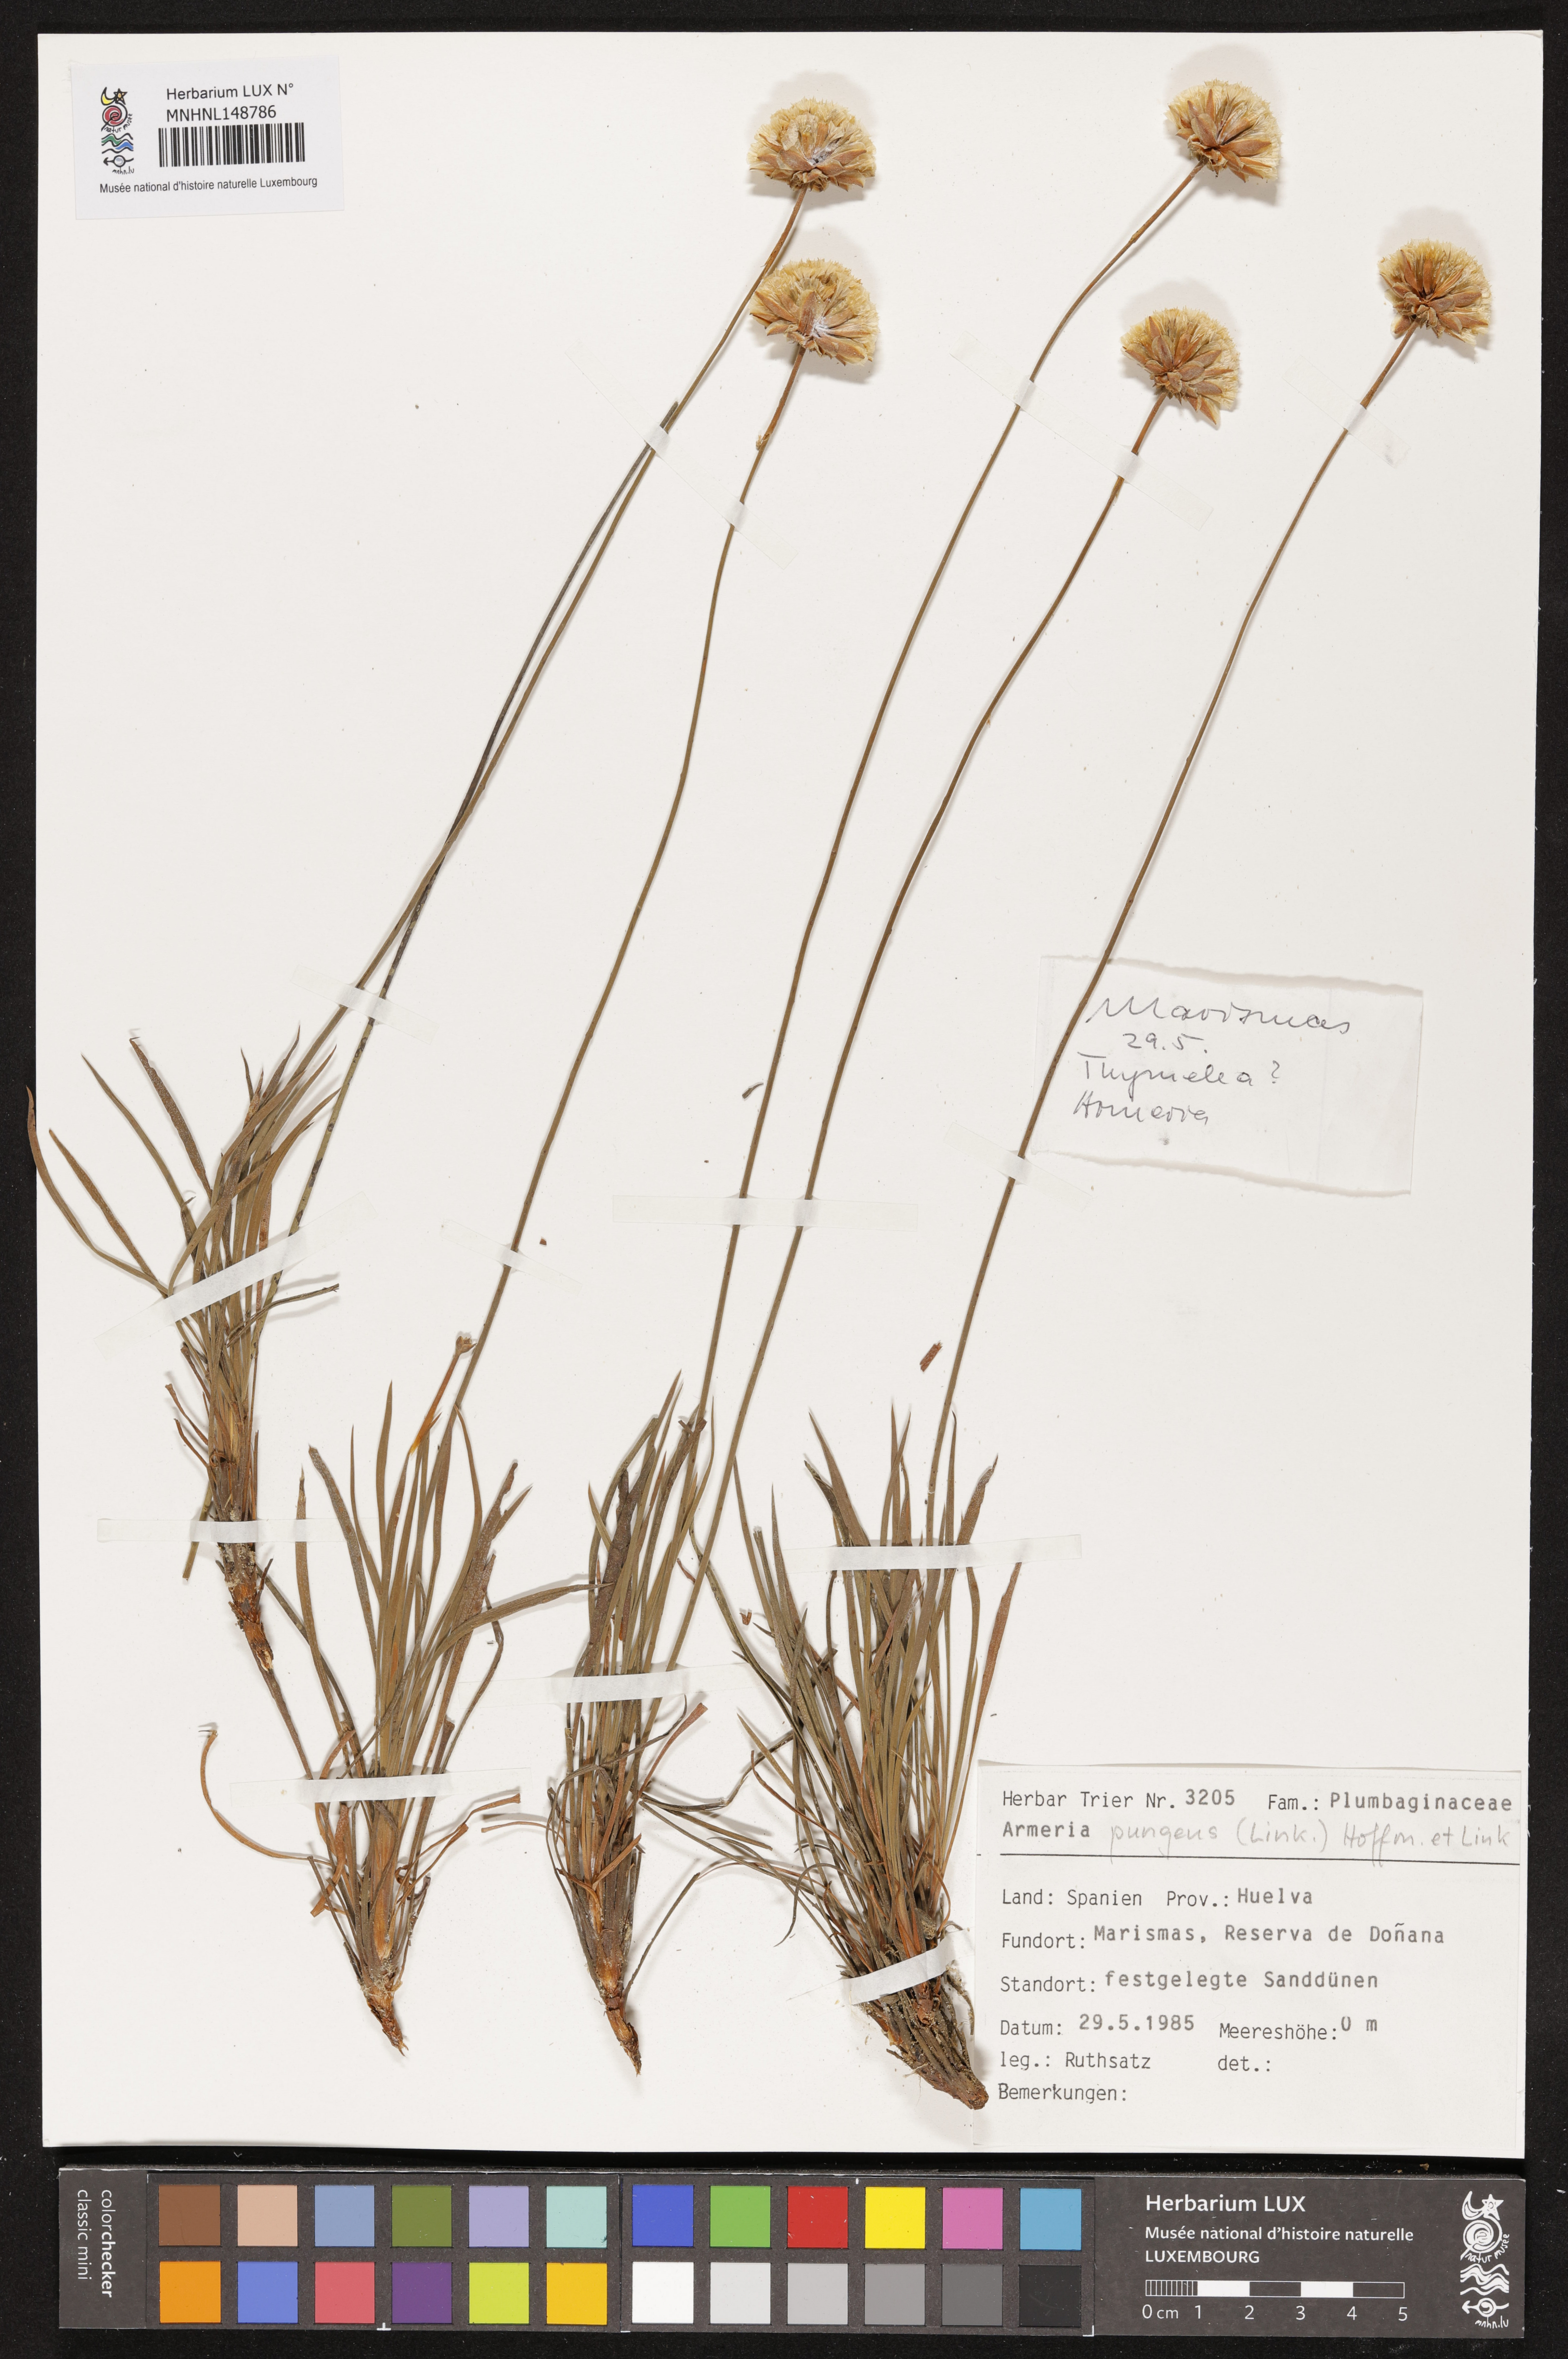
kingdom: Plantae
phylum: Tracheophyta
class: Magnoliopsida
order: Caryophyllales
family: Plumbaginaceae
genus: Armeria
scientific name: Armeria pungens
